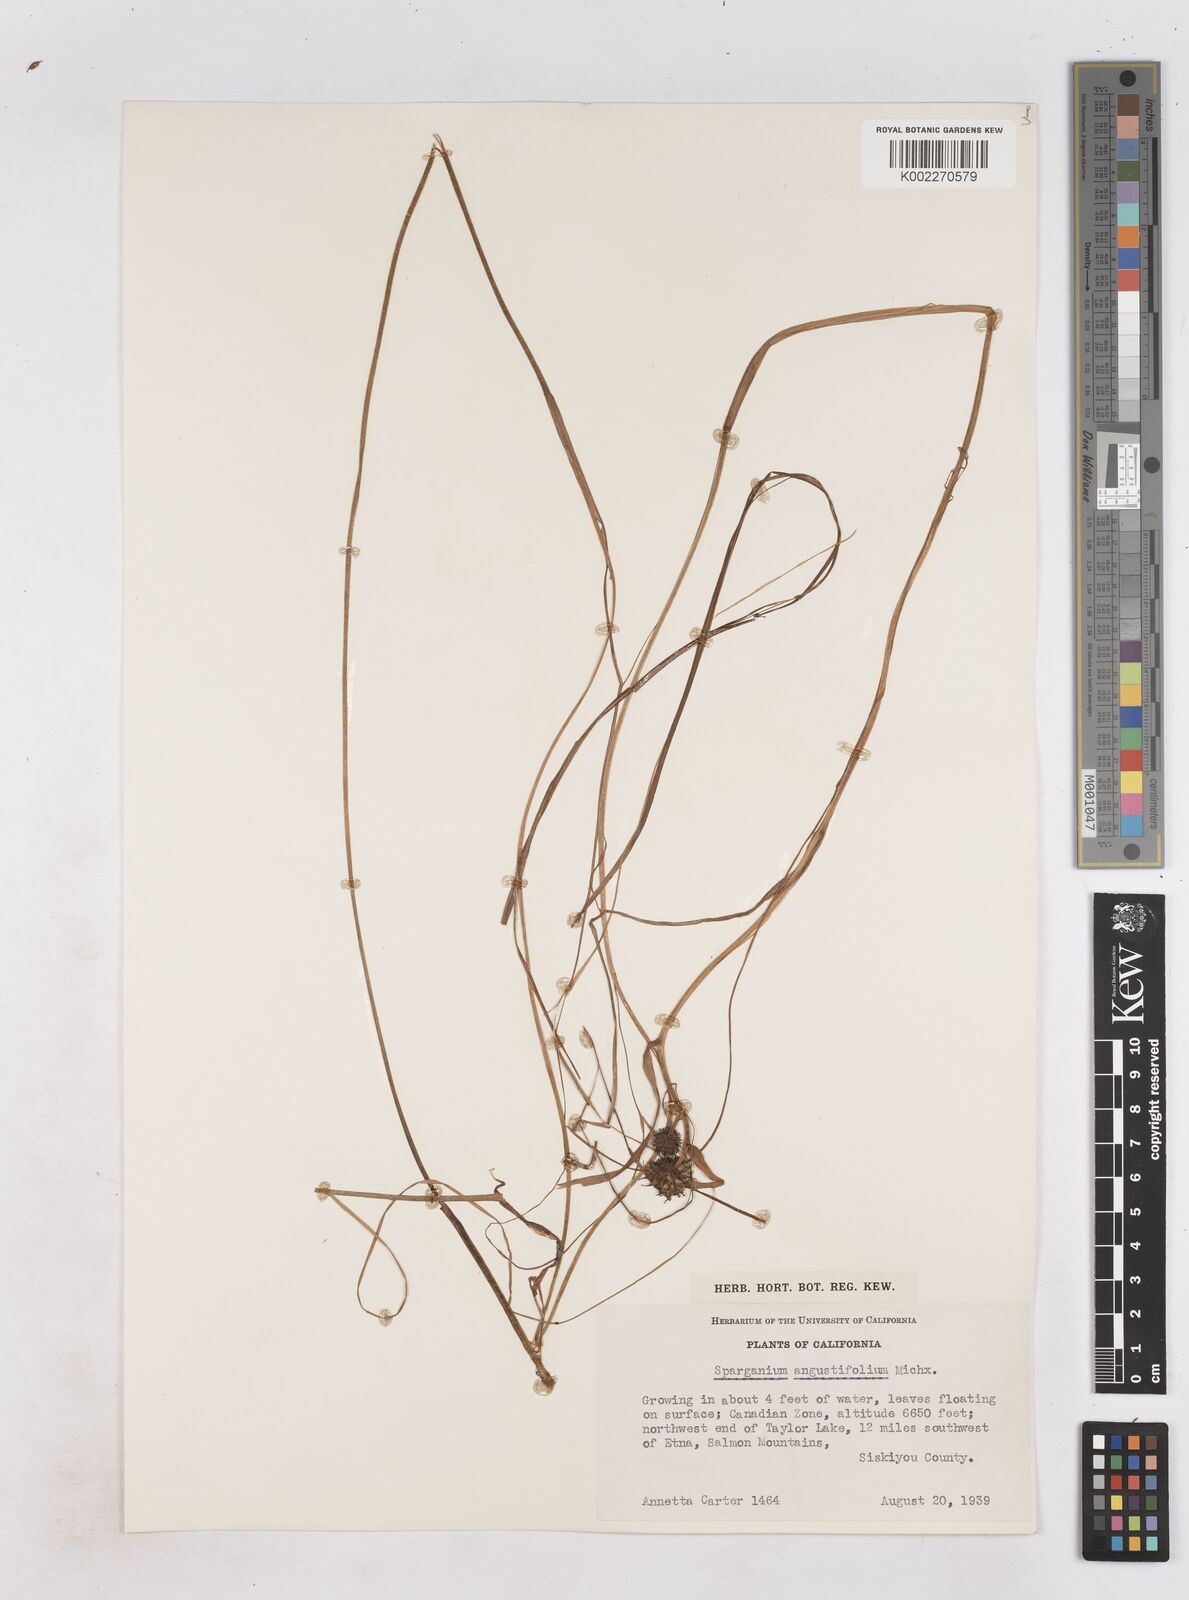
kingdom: Plantae
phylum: Tracheophyta
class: Liliopsida
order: Poales
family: Typhaceae
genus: Sparganium
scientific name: Sparganium angustifolium
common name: Floating bur-reed
